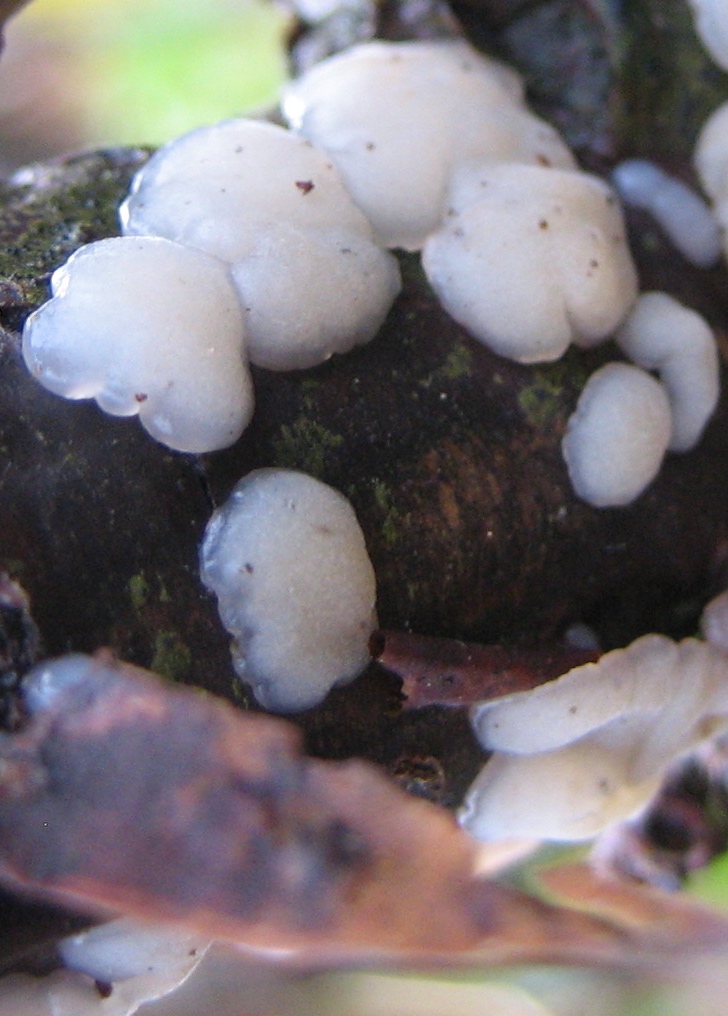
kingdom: Fungi
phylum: Basidiomycota
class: Agaricomycetes
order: Auriculariales
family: Auriculariaceae
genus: Exidia
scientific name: Exidia thuretiana
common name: hvidlig bævretop
